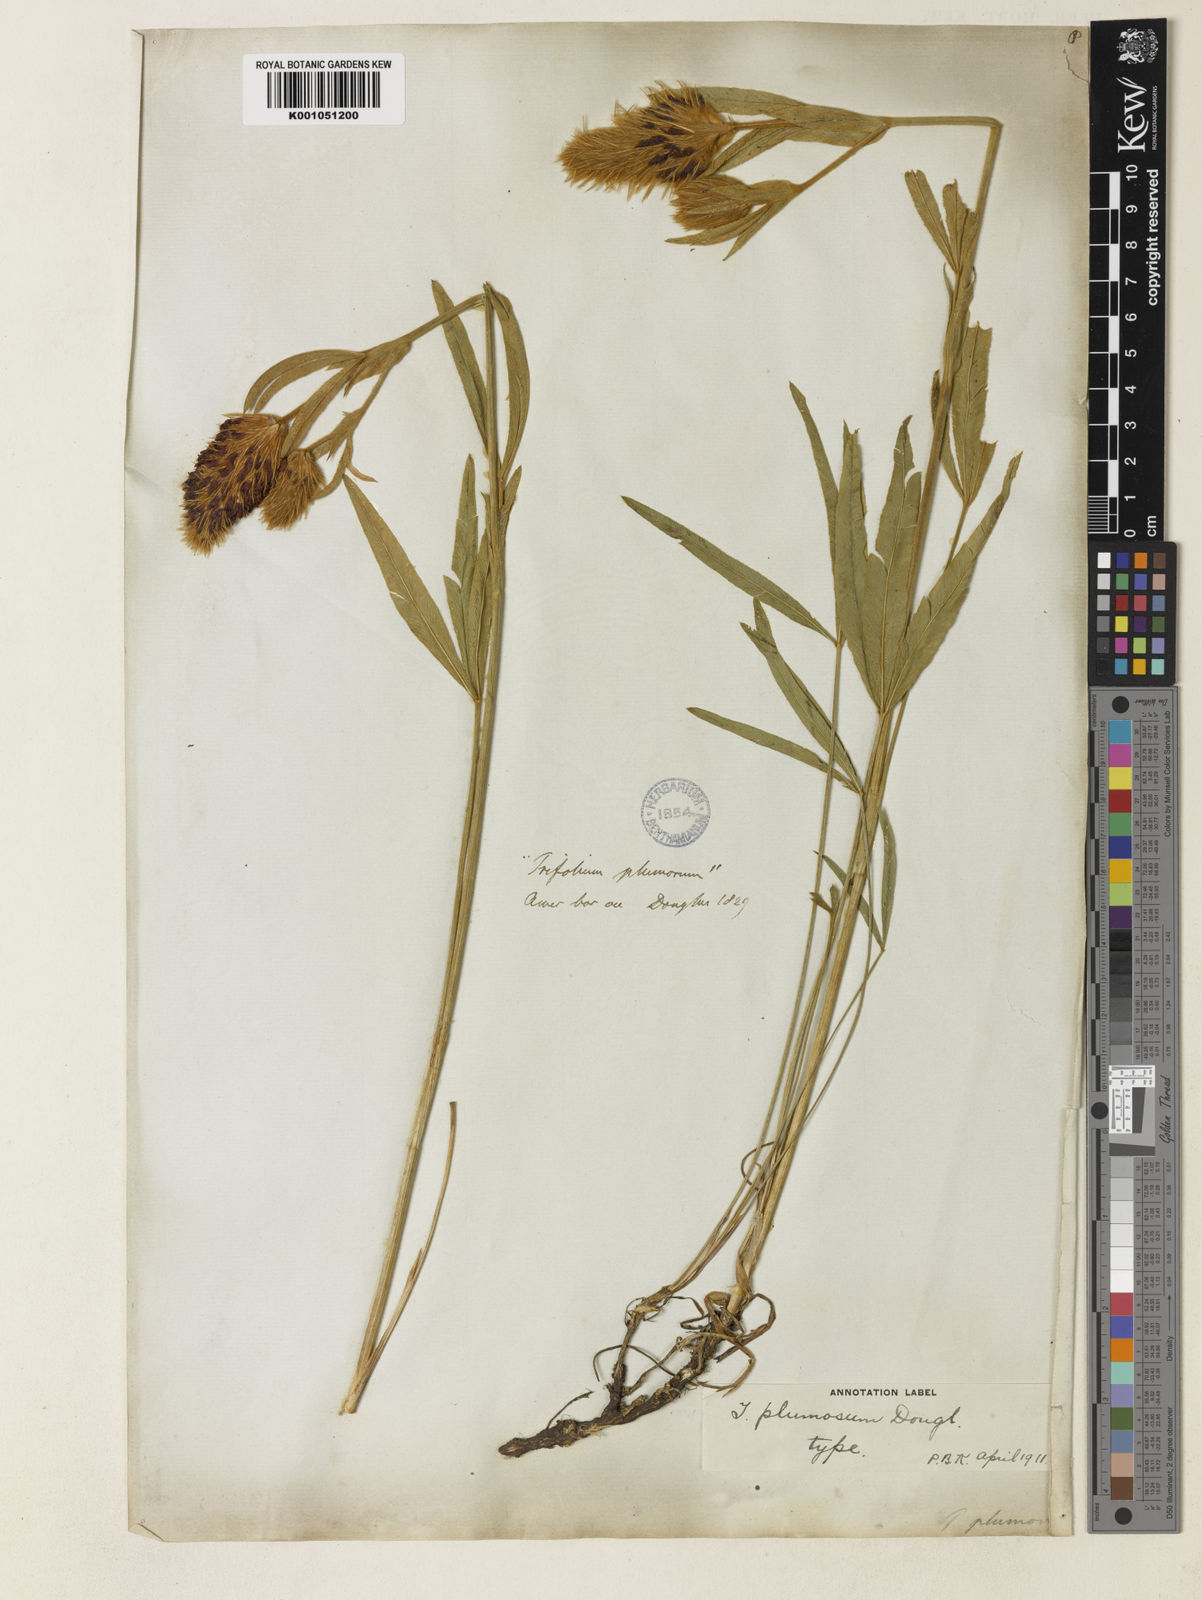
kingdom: Plantae
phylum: Tracheophyta
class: Magnoliopsida
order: Fabales
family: Fabaceae
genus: Trifolium
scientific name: Trifolium plumosum
